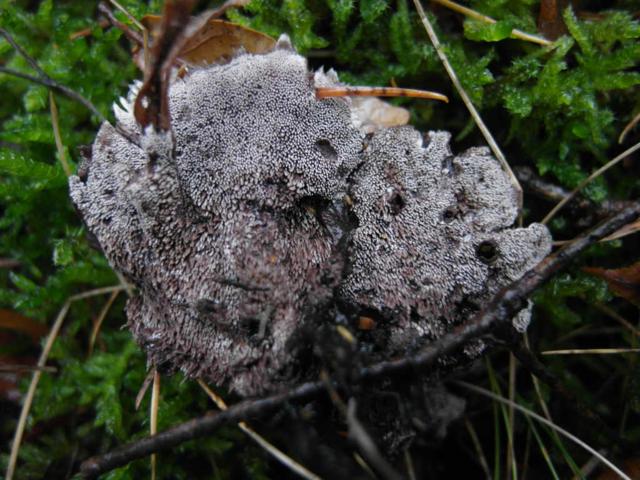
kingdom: Fungi
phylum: Basidiomycota
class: Agaricomycetes
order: Thelephorales
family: Thelephoraceae
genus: Phellodon
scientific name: Phellodon
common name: mørk duftpigsvamp
